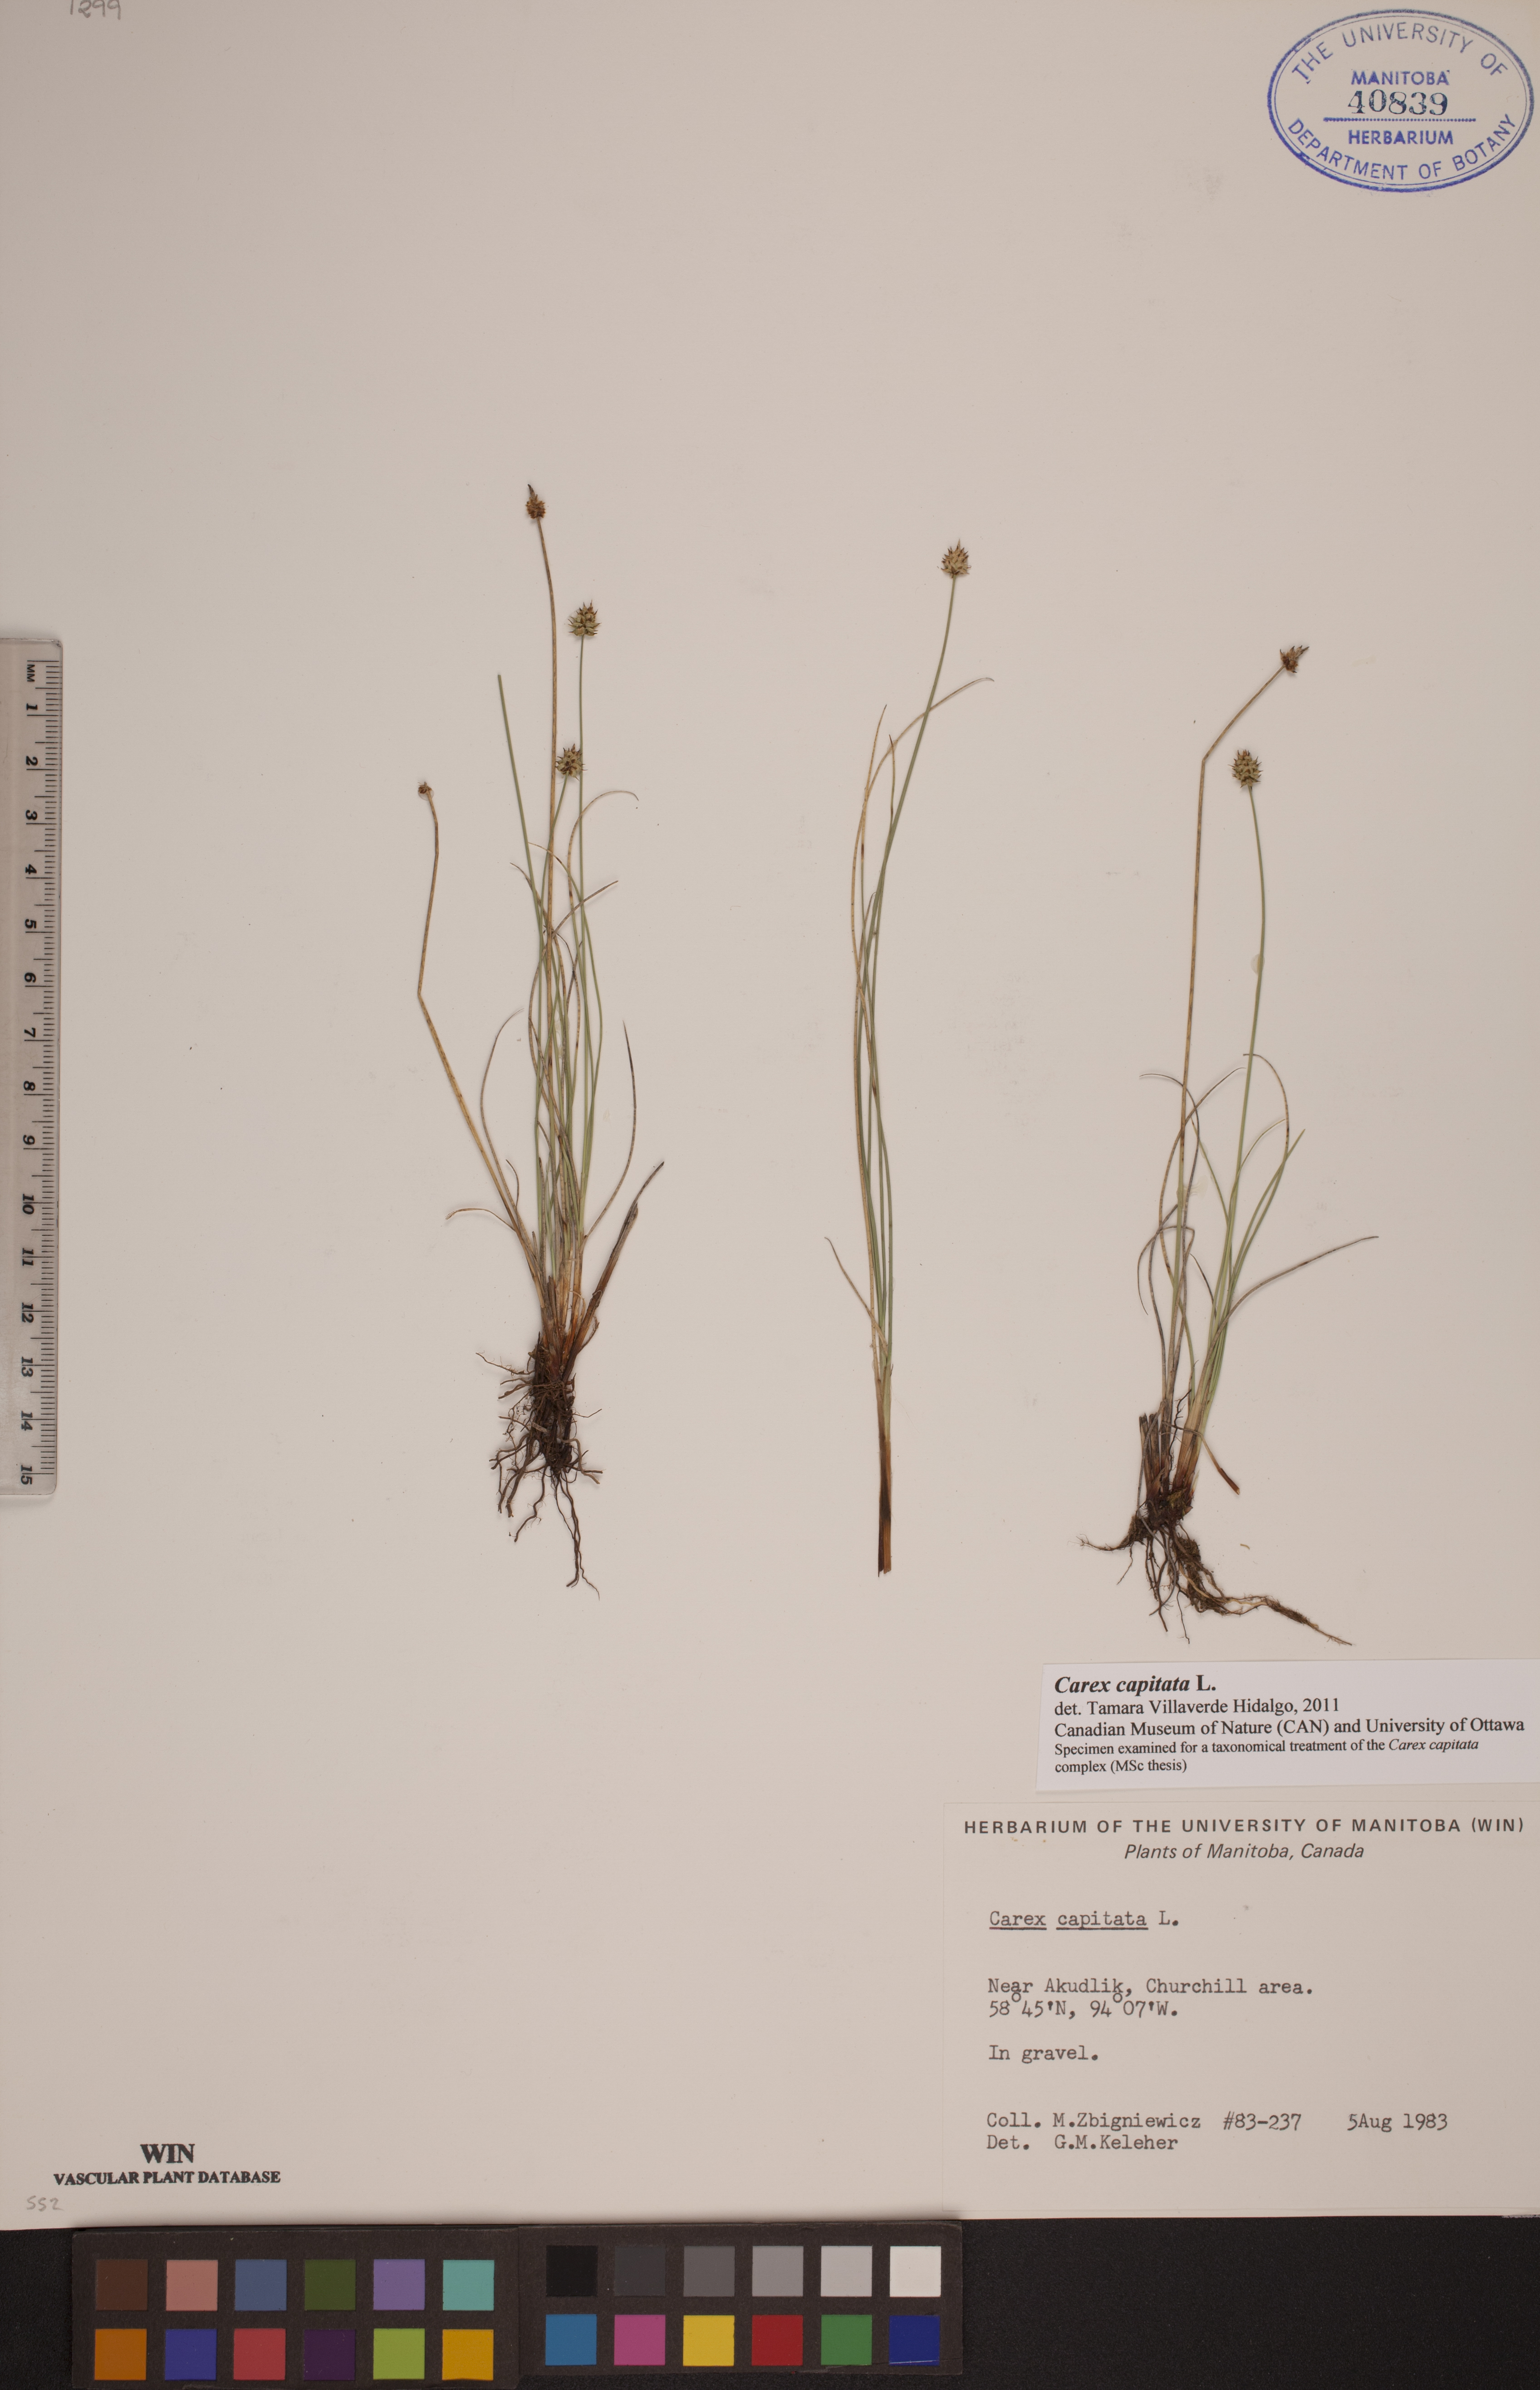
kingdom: Plantae
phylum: Tracheophyta
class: Liliopsida
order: Poales
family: Cyperaceae
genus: Carex
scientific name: Carex capitata
